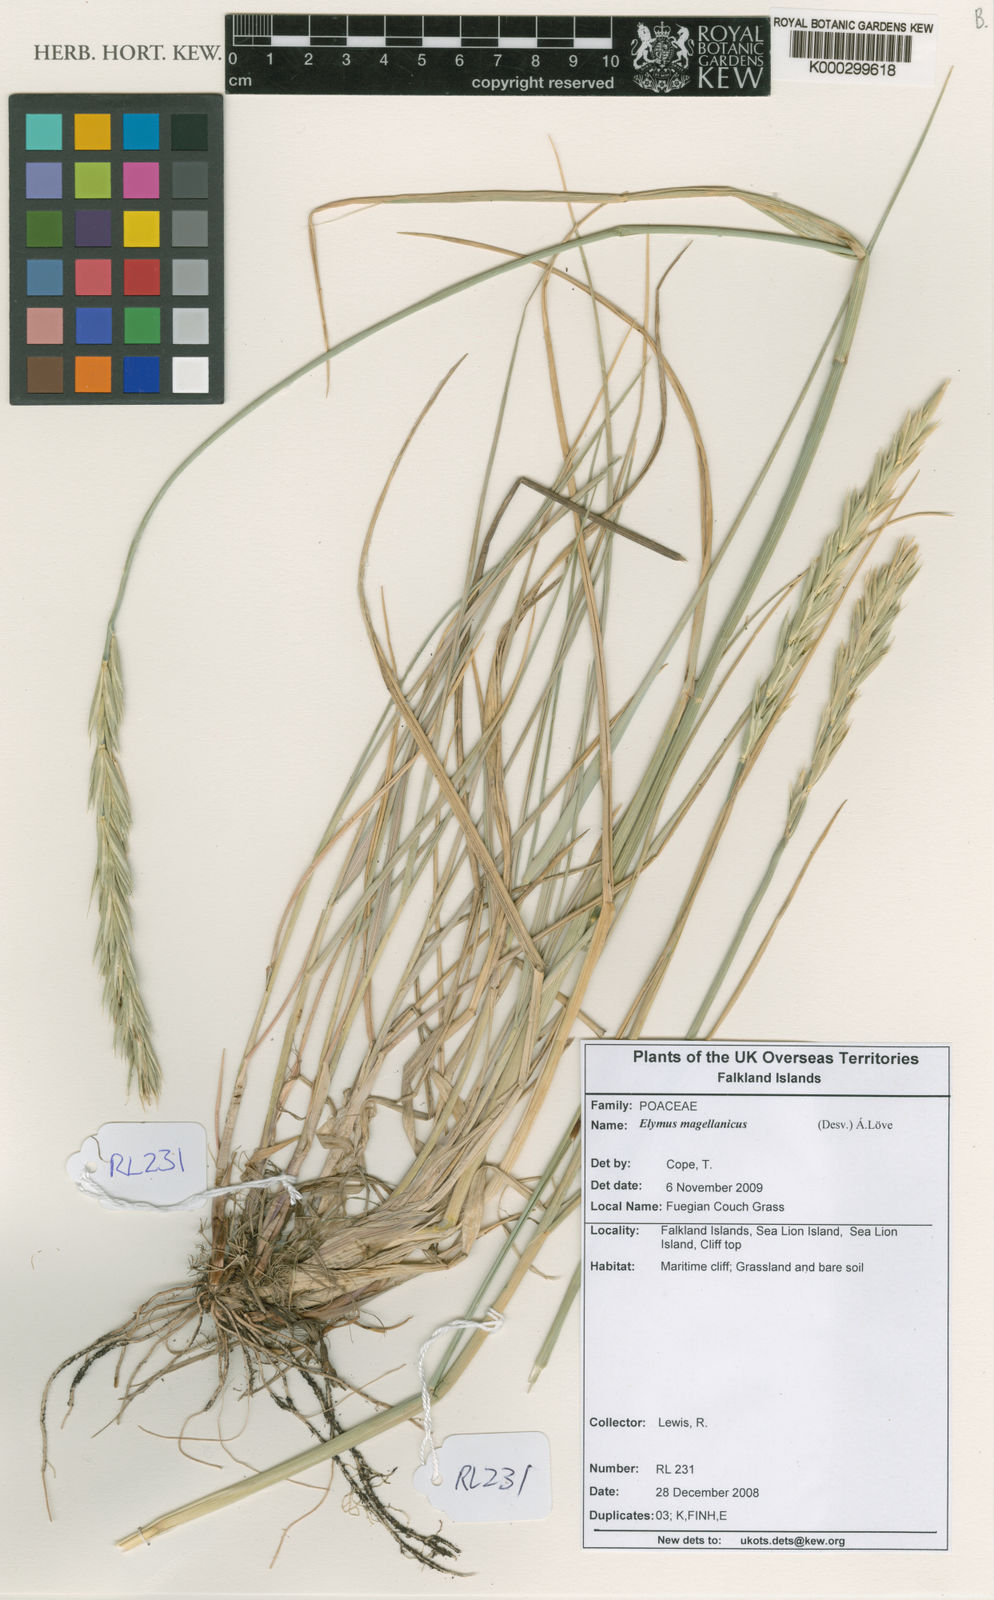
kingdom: Plantae
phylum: Tracheophyta
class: Liliopsida
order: Poales
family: Poaceae
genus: Elymus
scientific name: Elymus magellanicus
